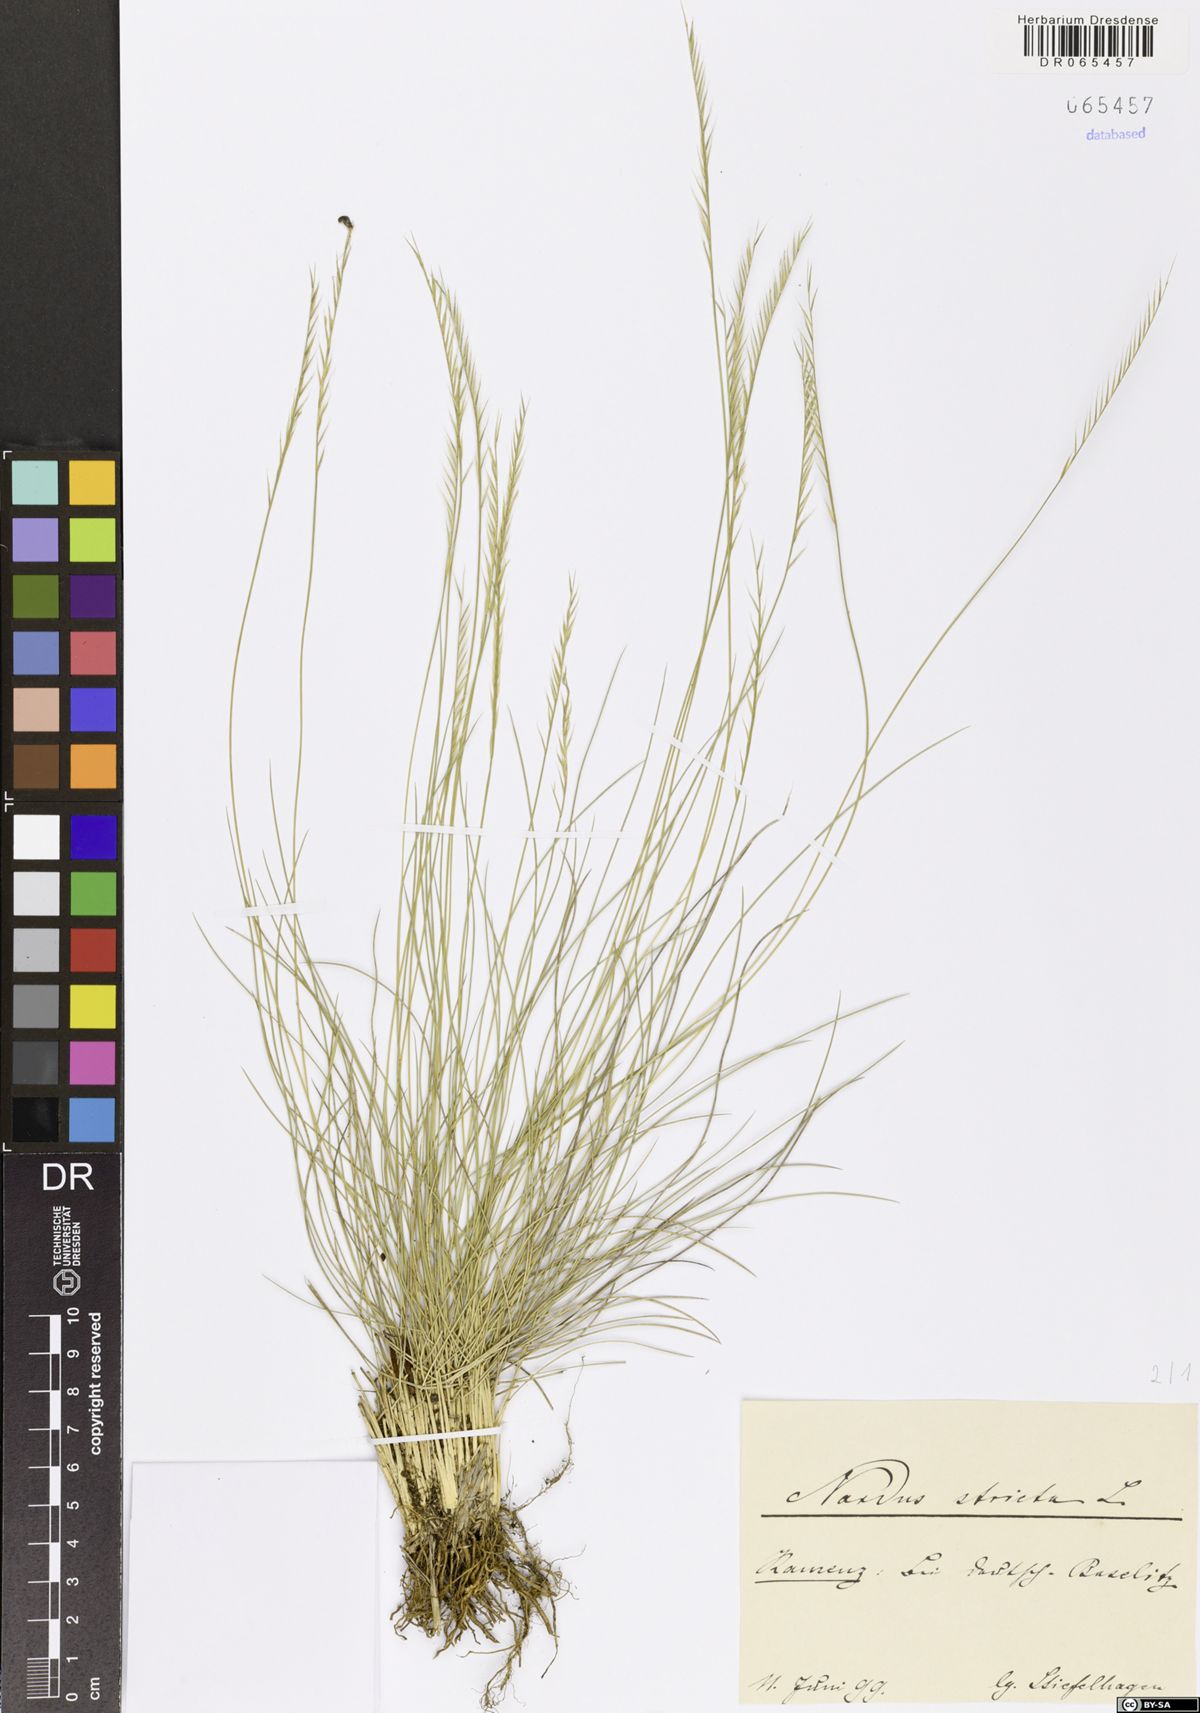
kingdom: Plantae
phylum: Tracheophyta
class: Liliopsida
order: Poales
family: Poaceae
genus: Nardus
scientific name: Nardus stricta
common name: Mat-grass
